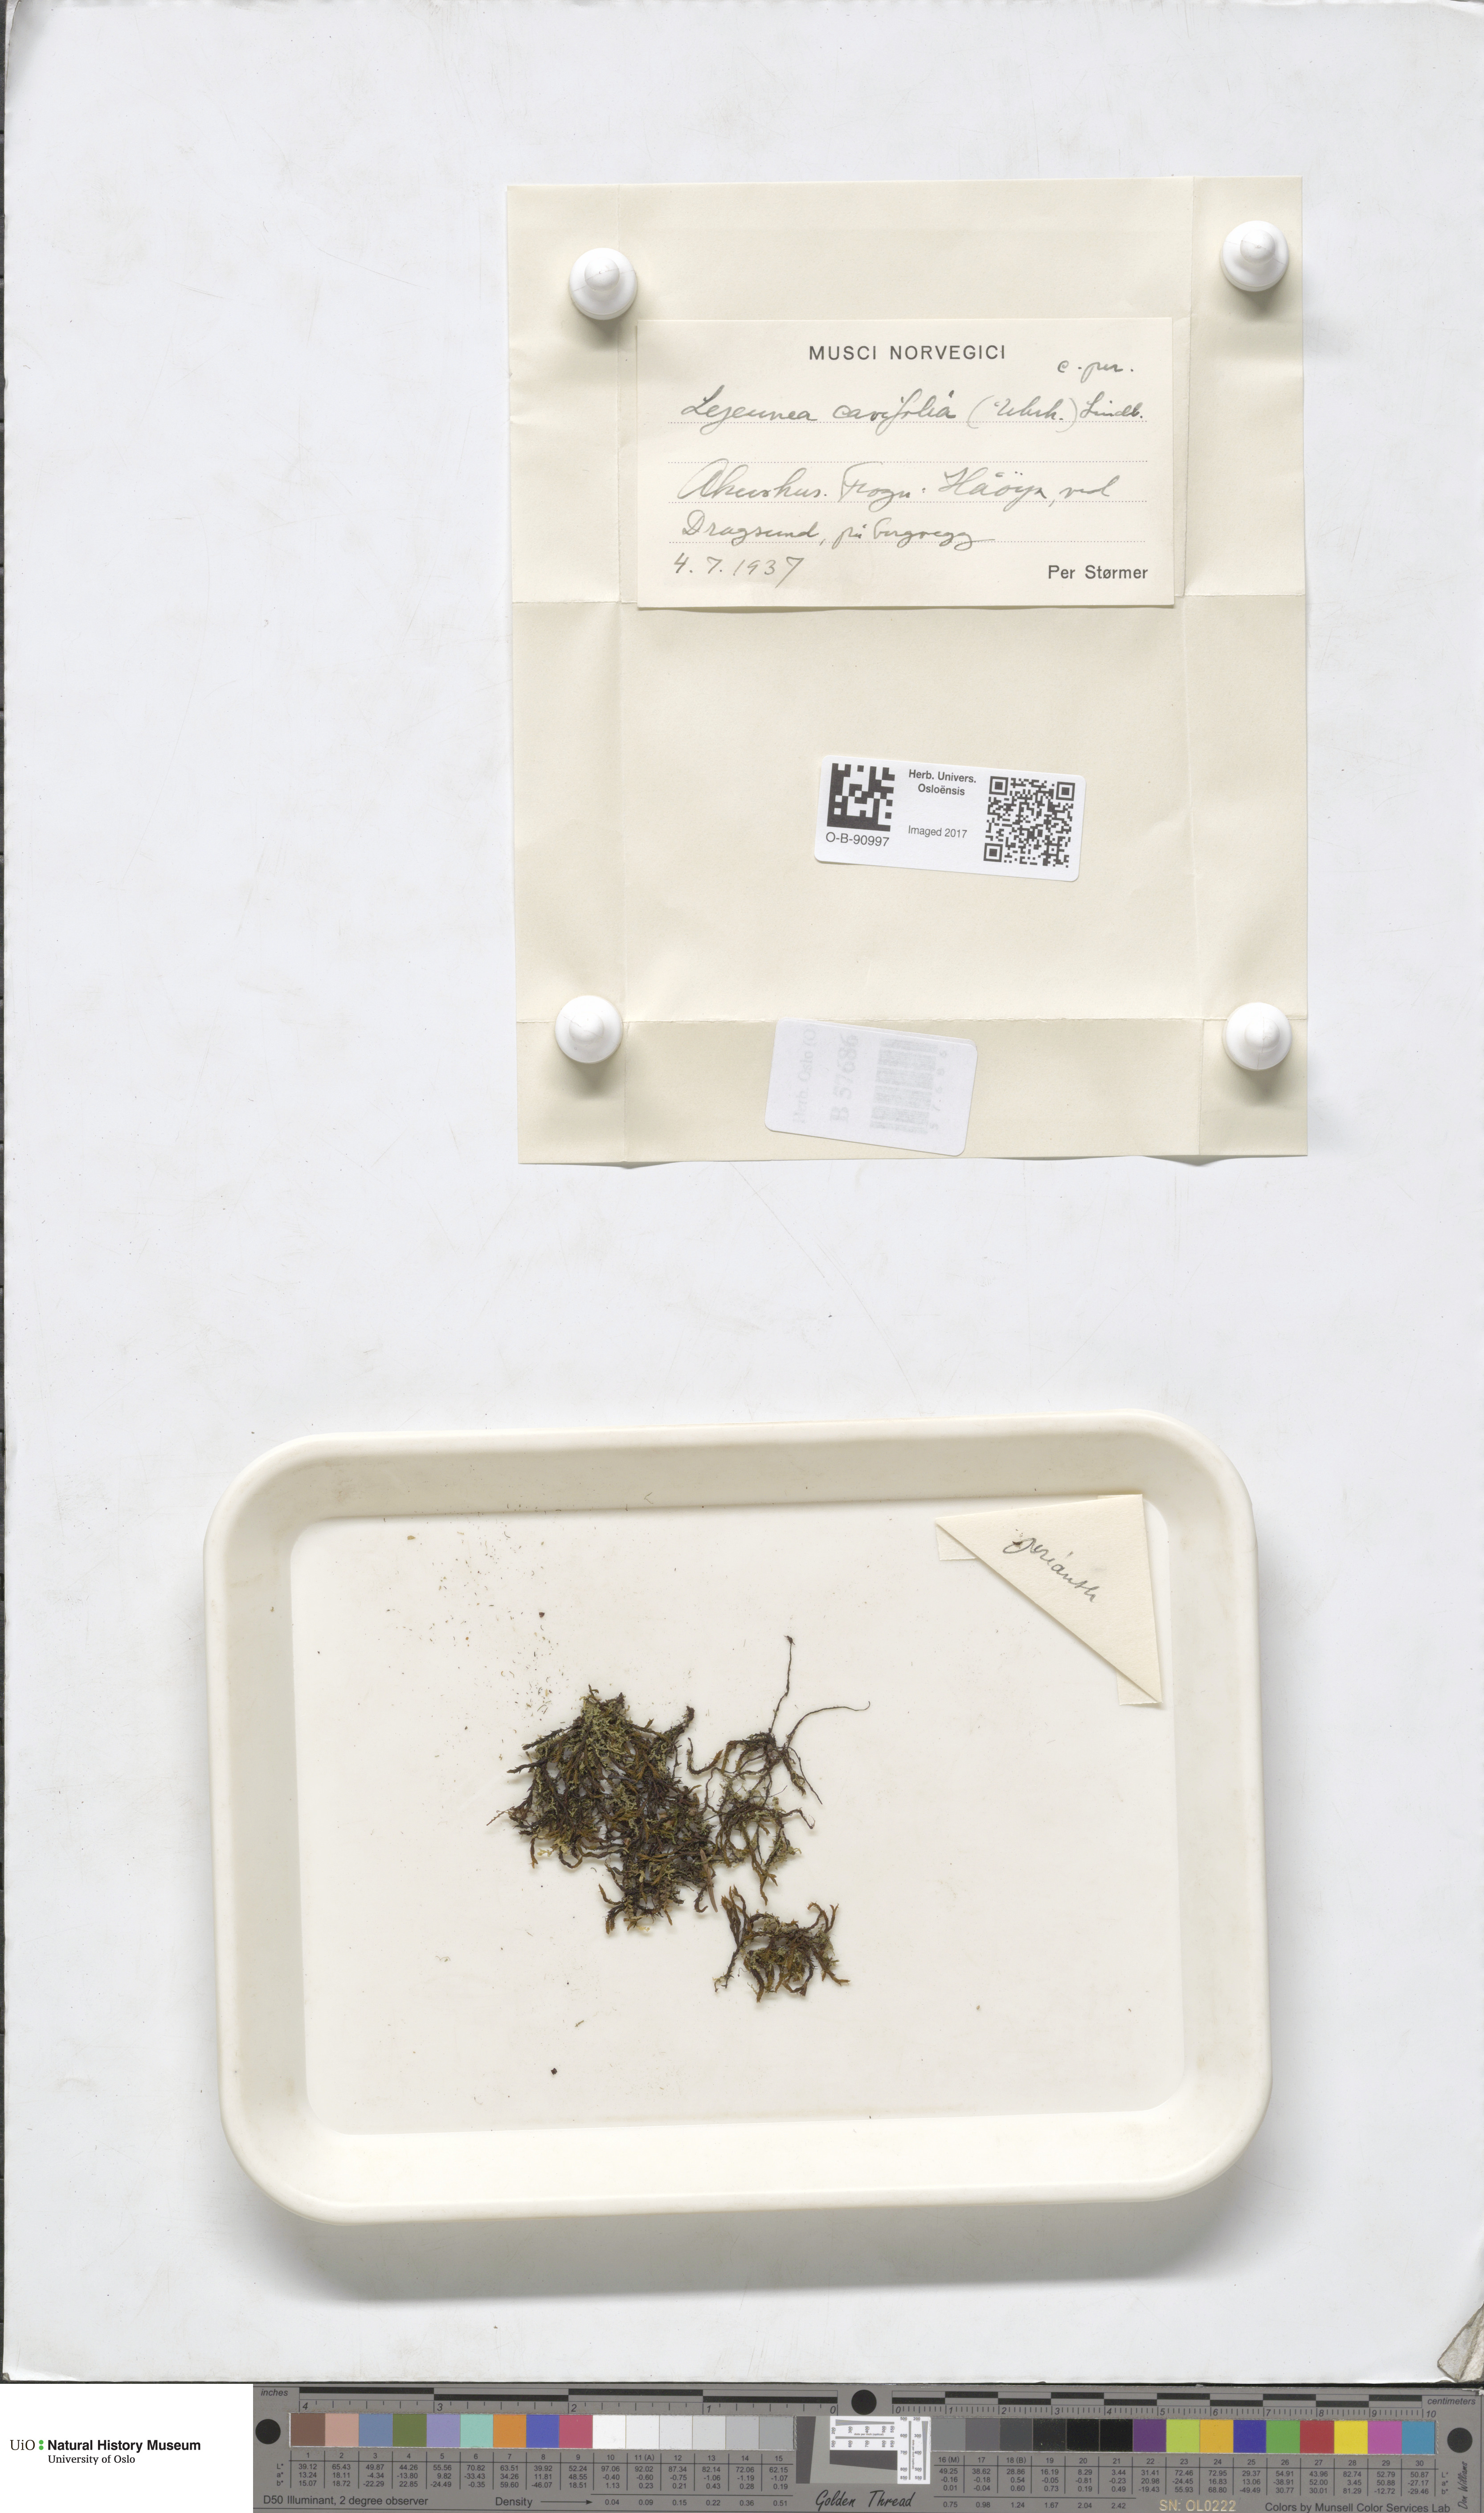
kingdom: Plantae
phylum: Marchantiophyta
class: Jungermanniopsida
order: Porellales
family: Lejeuneaceae
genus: Lejeunea
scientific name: Lejeunea cavifolia
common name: Least pouncewort
